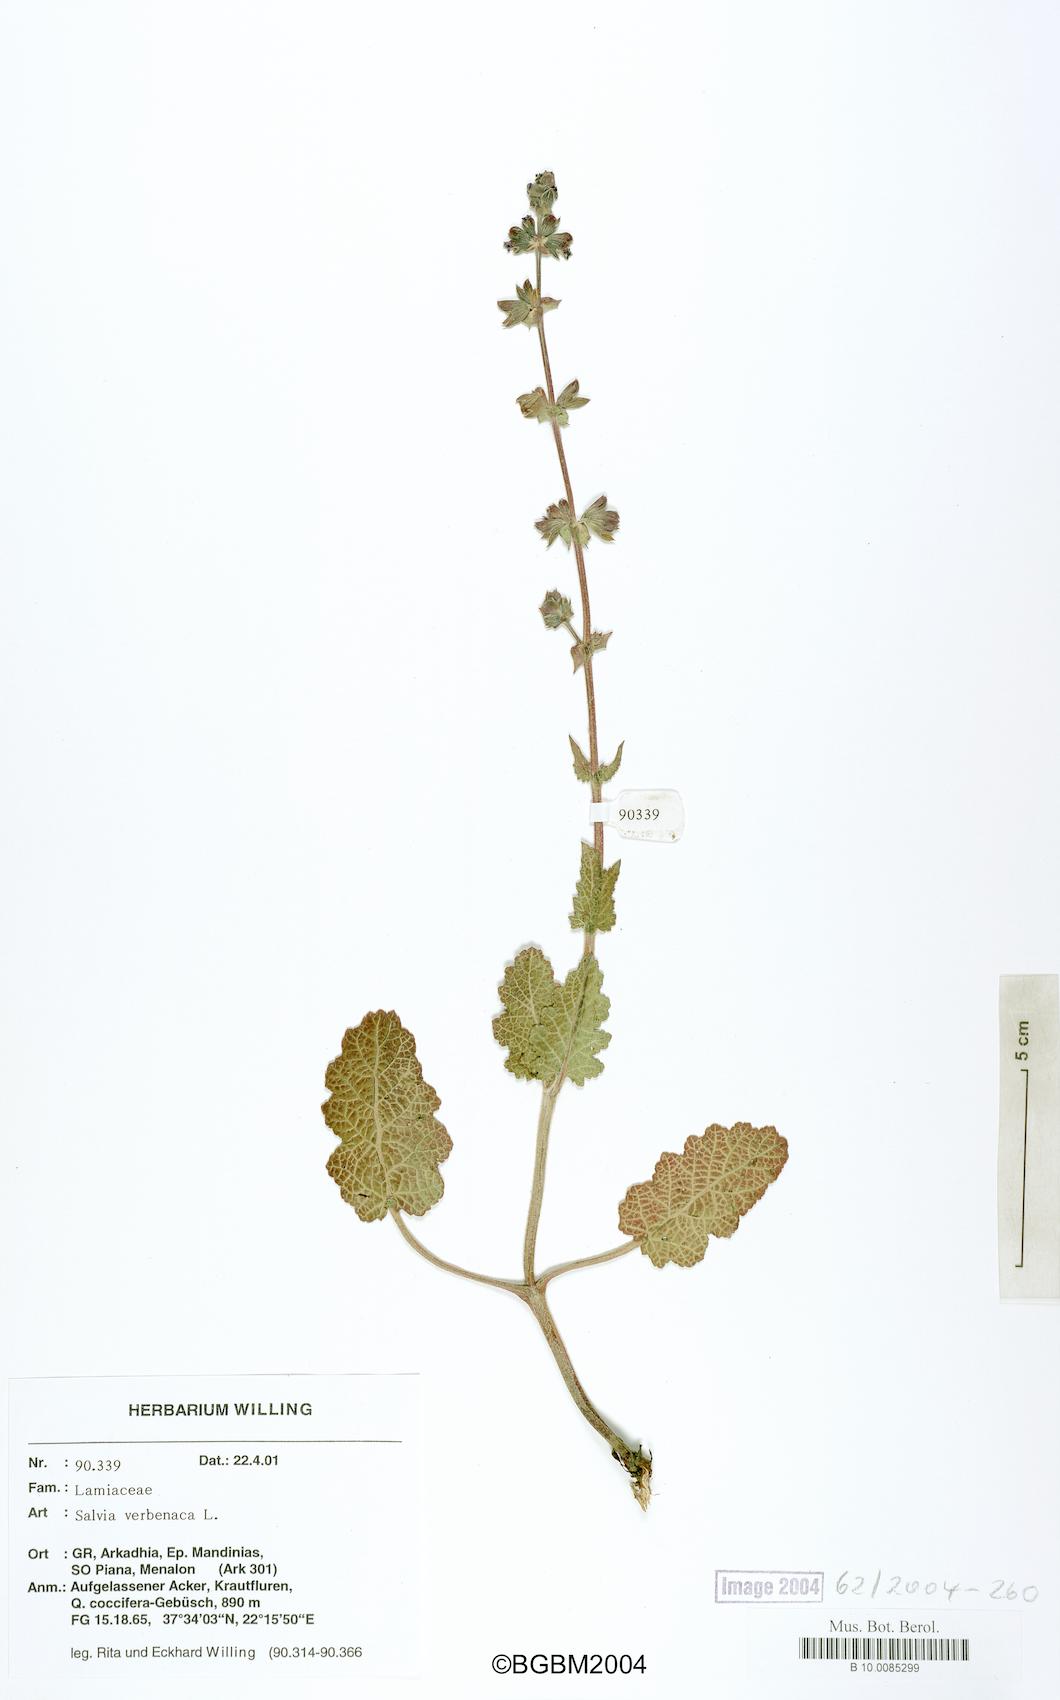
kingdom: Plantae
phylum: Tracheophyta
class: Magnoliopsida
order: Lamiales
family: Lamiaceae
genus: Salvia
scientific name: Salvia verbenaca
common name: Wild clary
